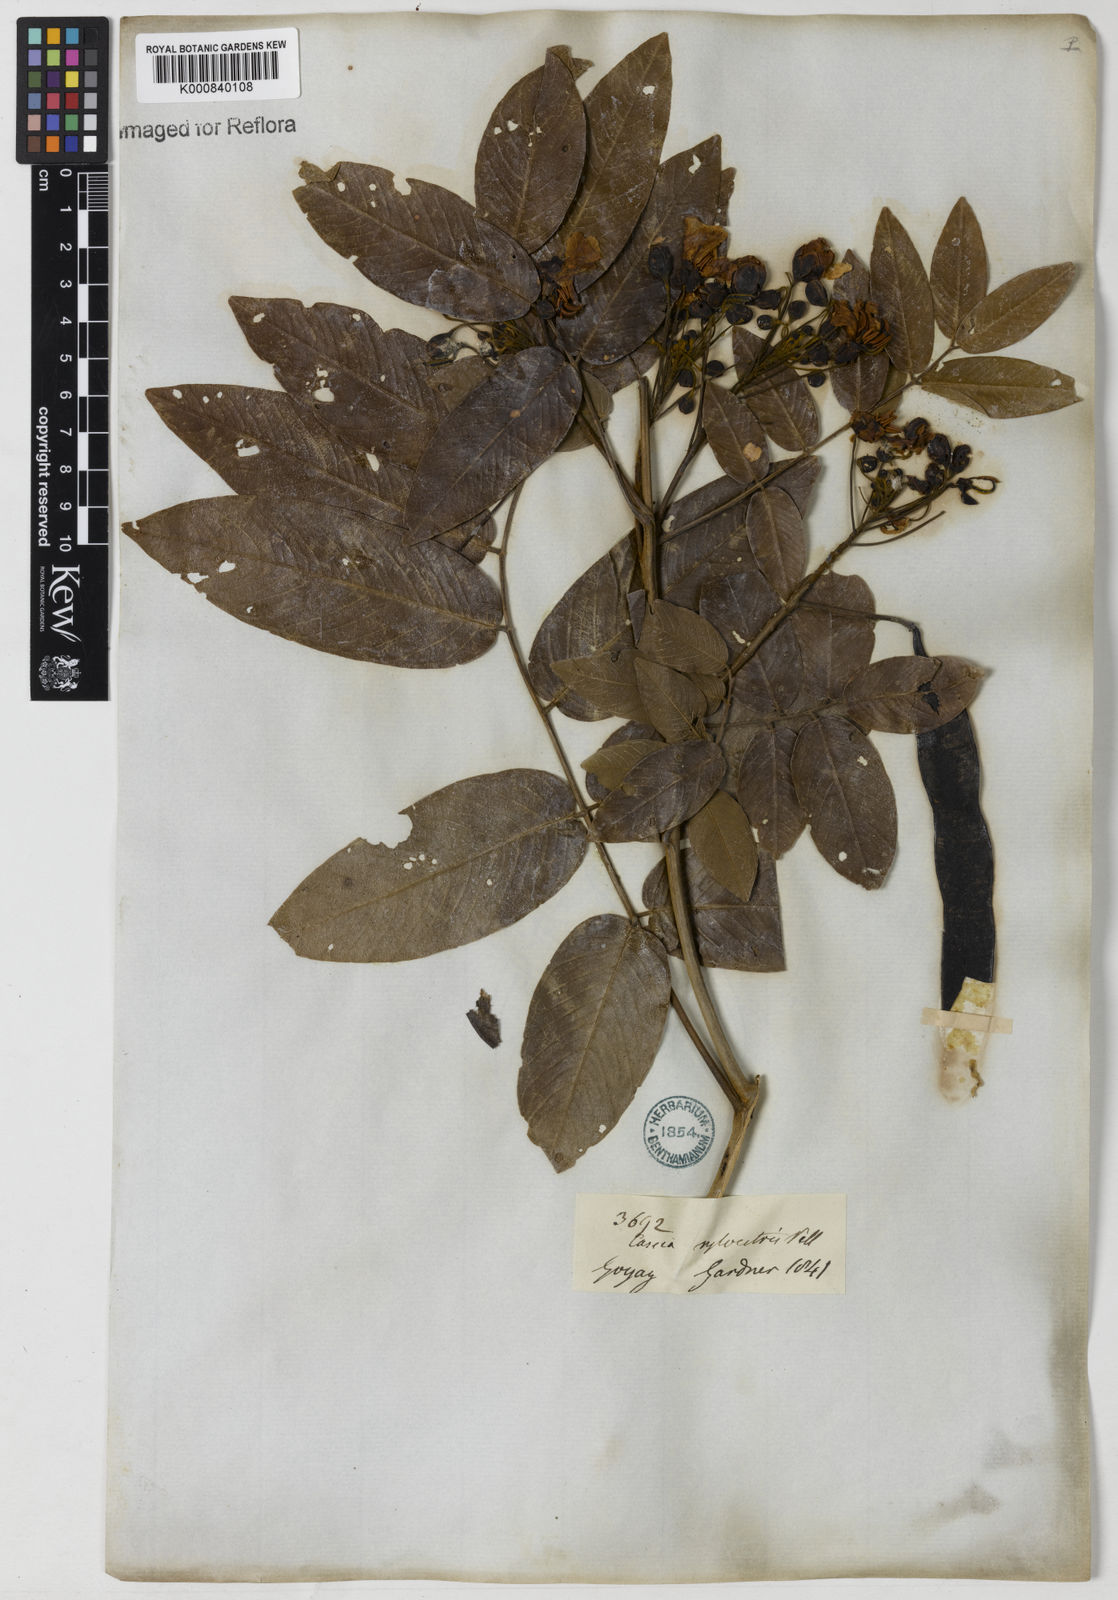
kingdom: Plantae
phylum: Tracheophyta
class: Magnoliopsida
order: Fabales
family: Fabaceae
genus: Senna
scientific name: Senna silvestris
